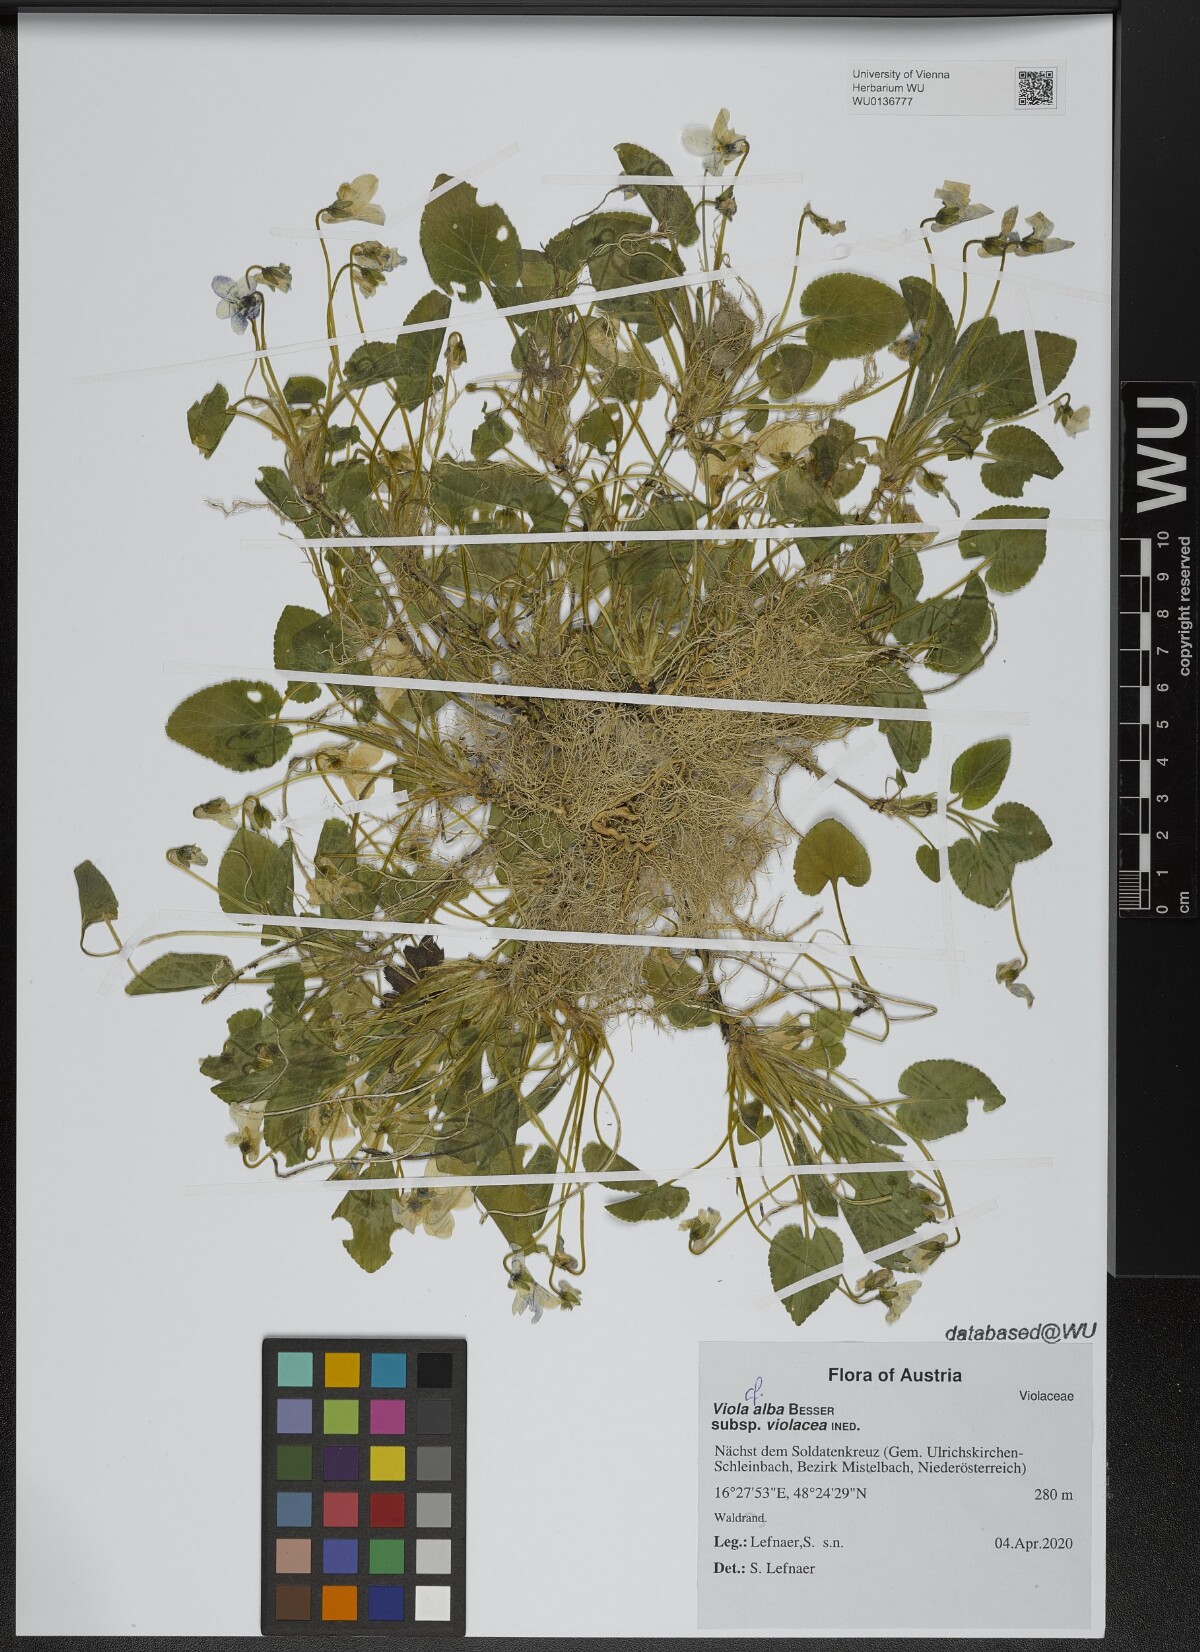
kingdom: Plantae
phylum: Tracheophyta
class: Magnoliopsida
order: Malpighiales
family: Violaceae
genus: Viola
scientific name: Viola alba
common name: White violet
